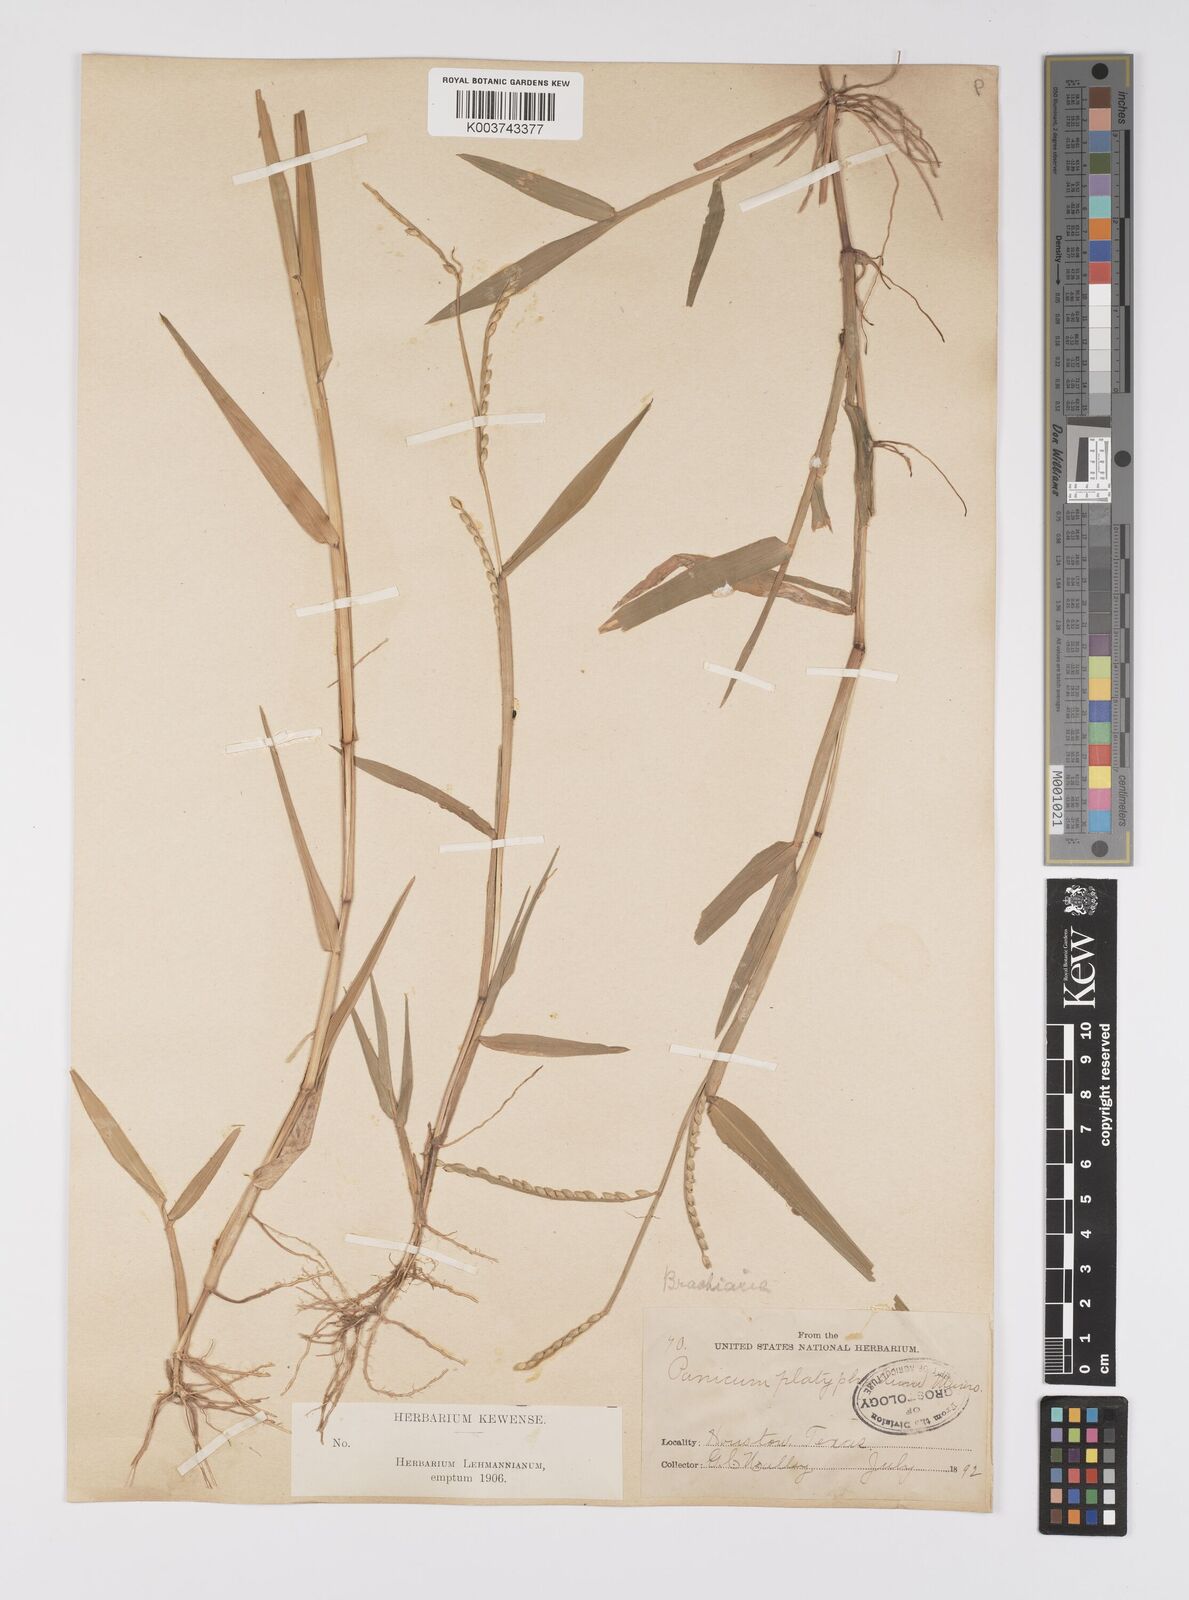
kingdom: Plantae
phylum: Tracheophyta
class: Liliopsida
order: Poales
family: Poaceae
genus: Urochloa
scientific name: Urochloa platyphylla
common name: White para grass
